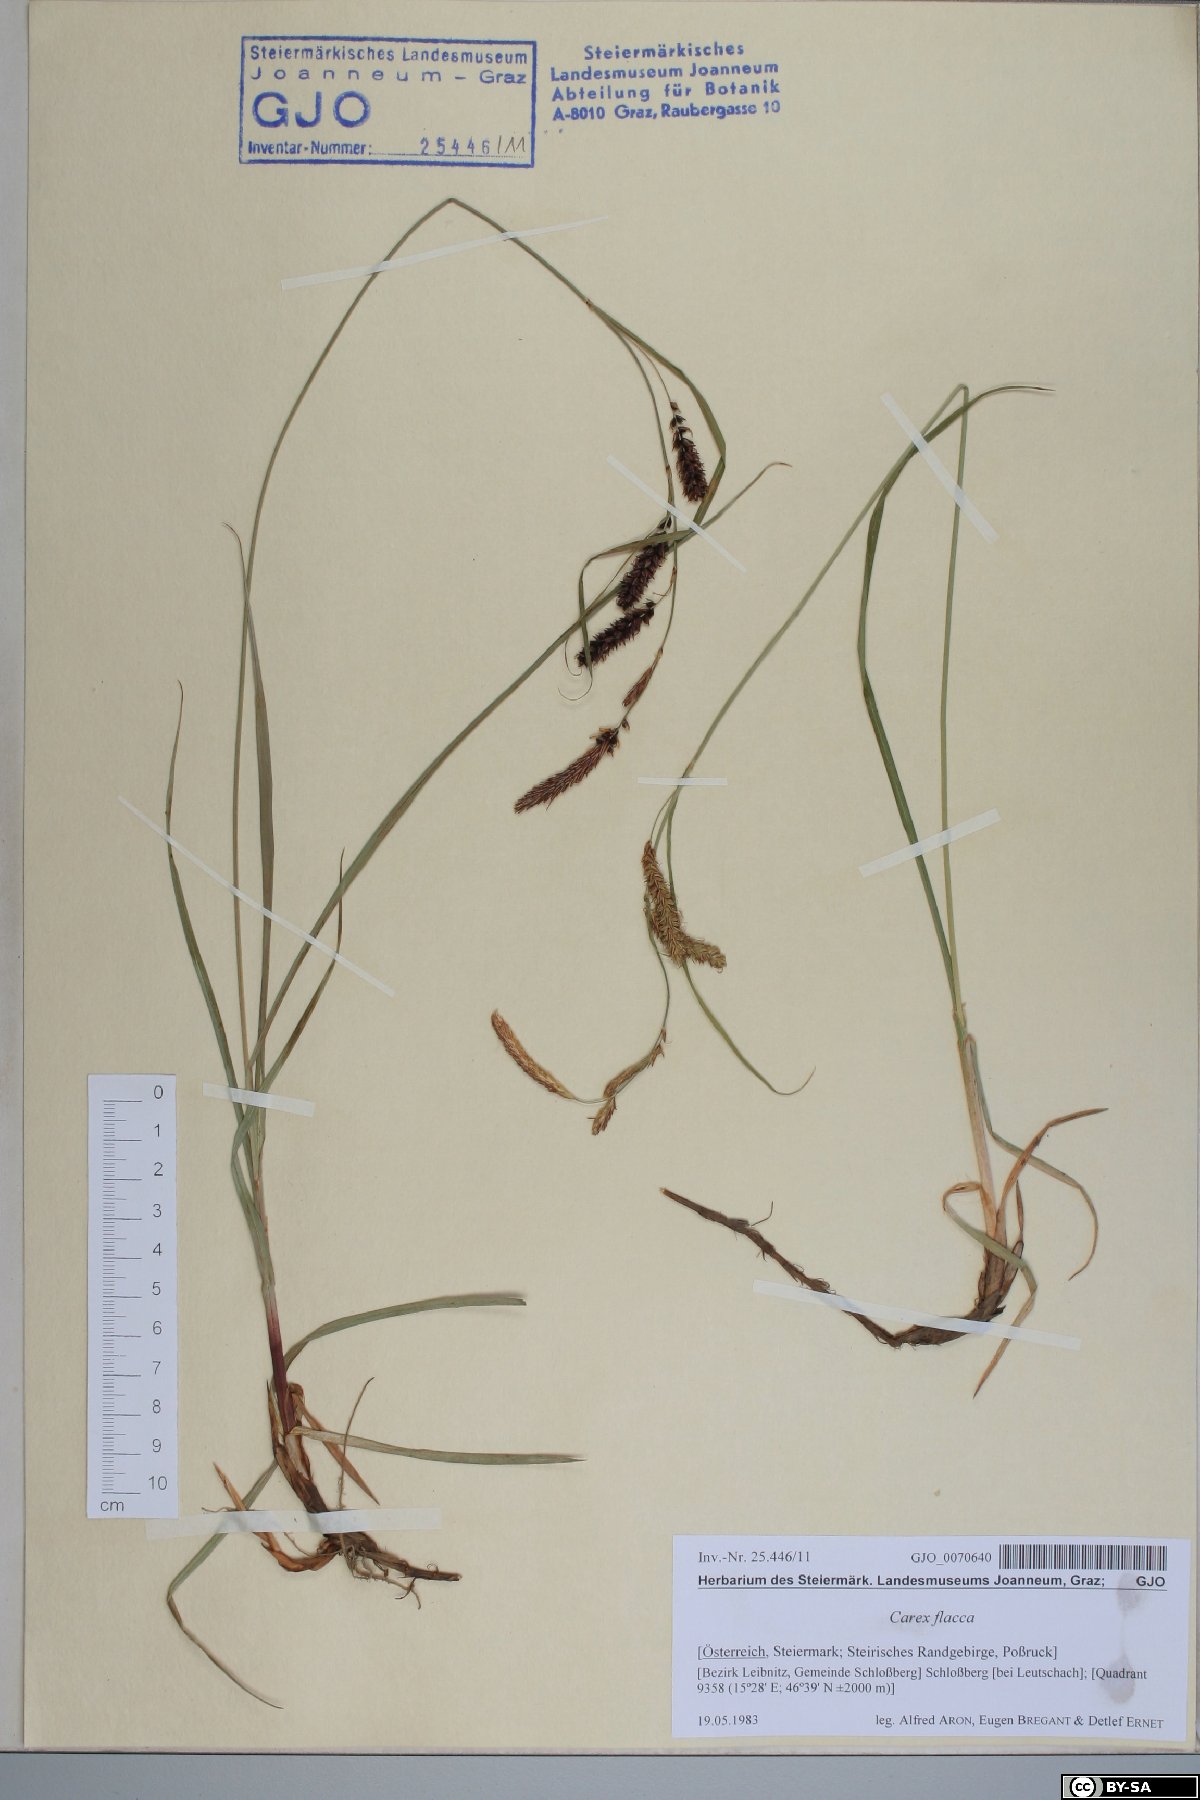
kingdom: Plantae
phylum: Tracheophyta
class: Liliopsida
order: Poales
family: Cyperaceae
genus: Carex
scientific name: Carex flacca
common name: Glaucous sedge
